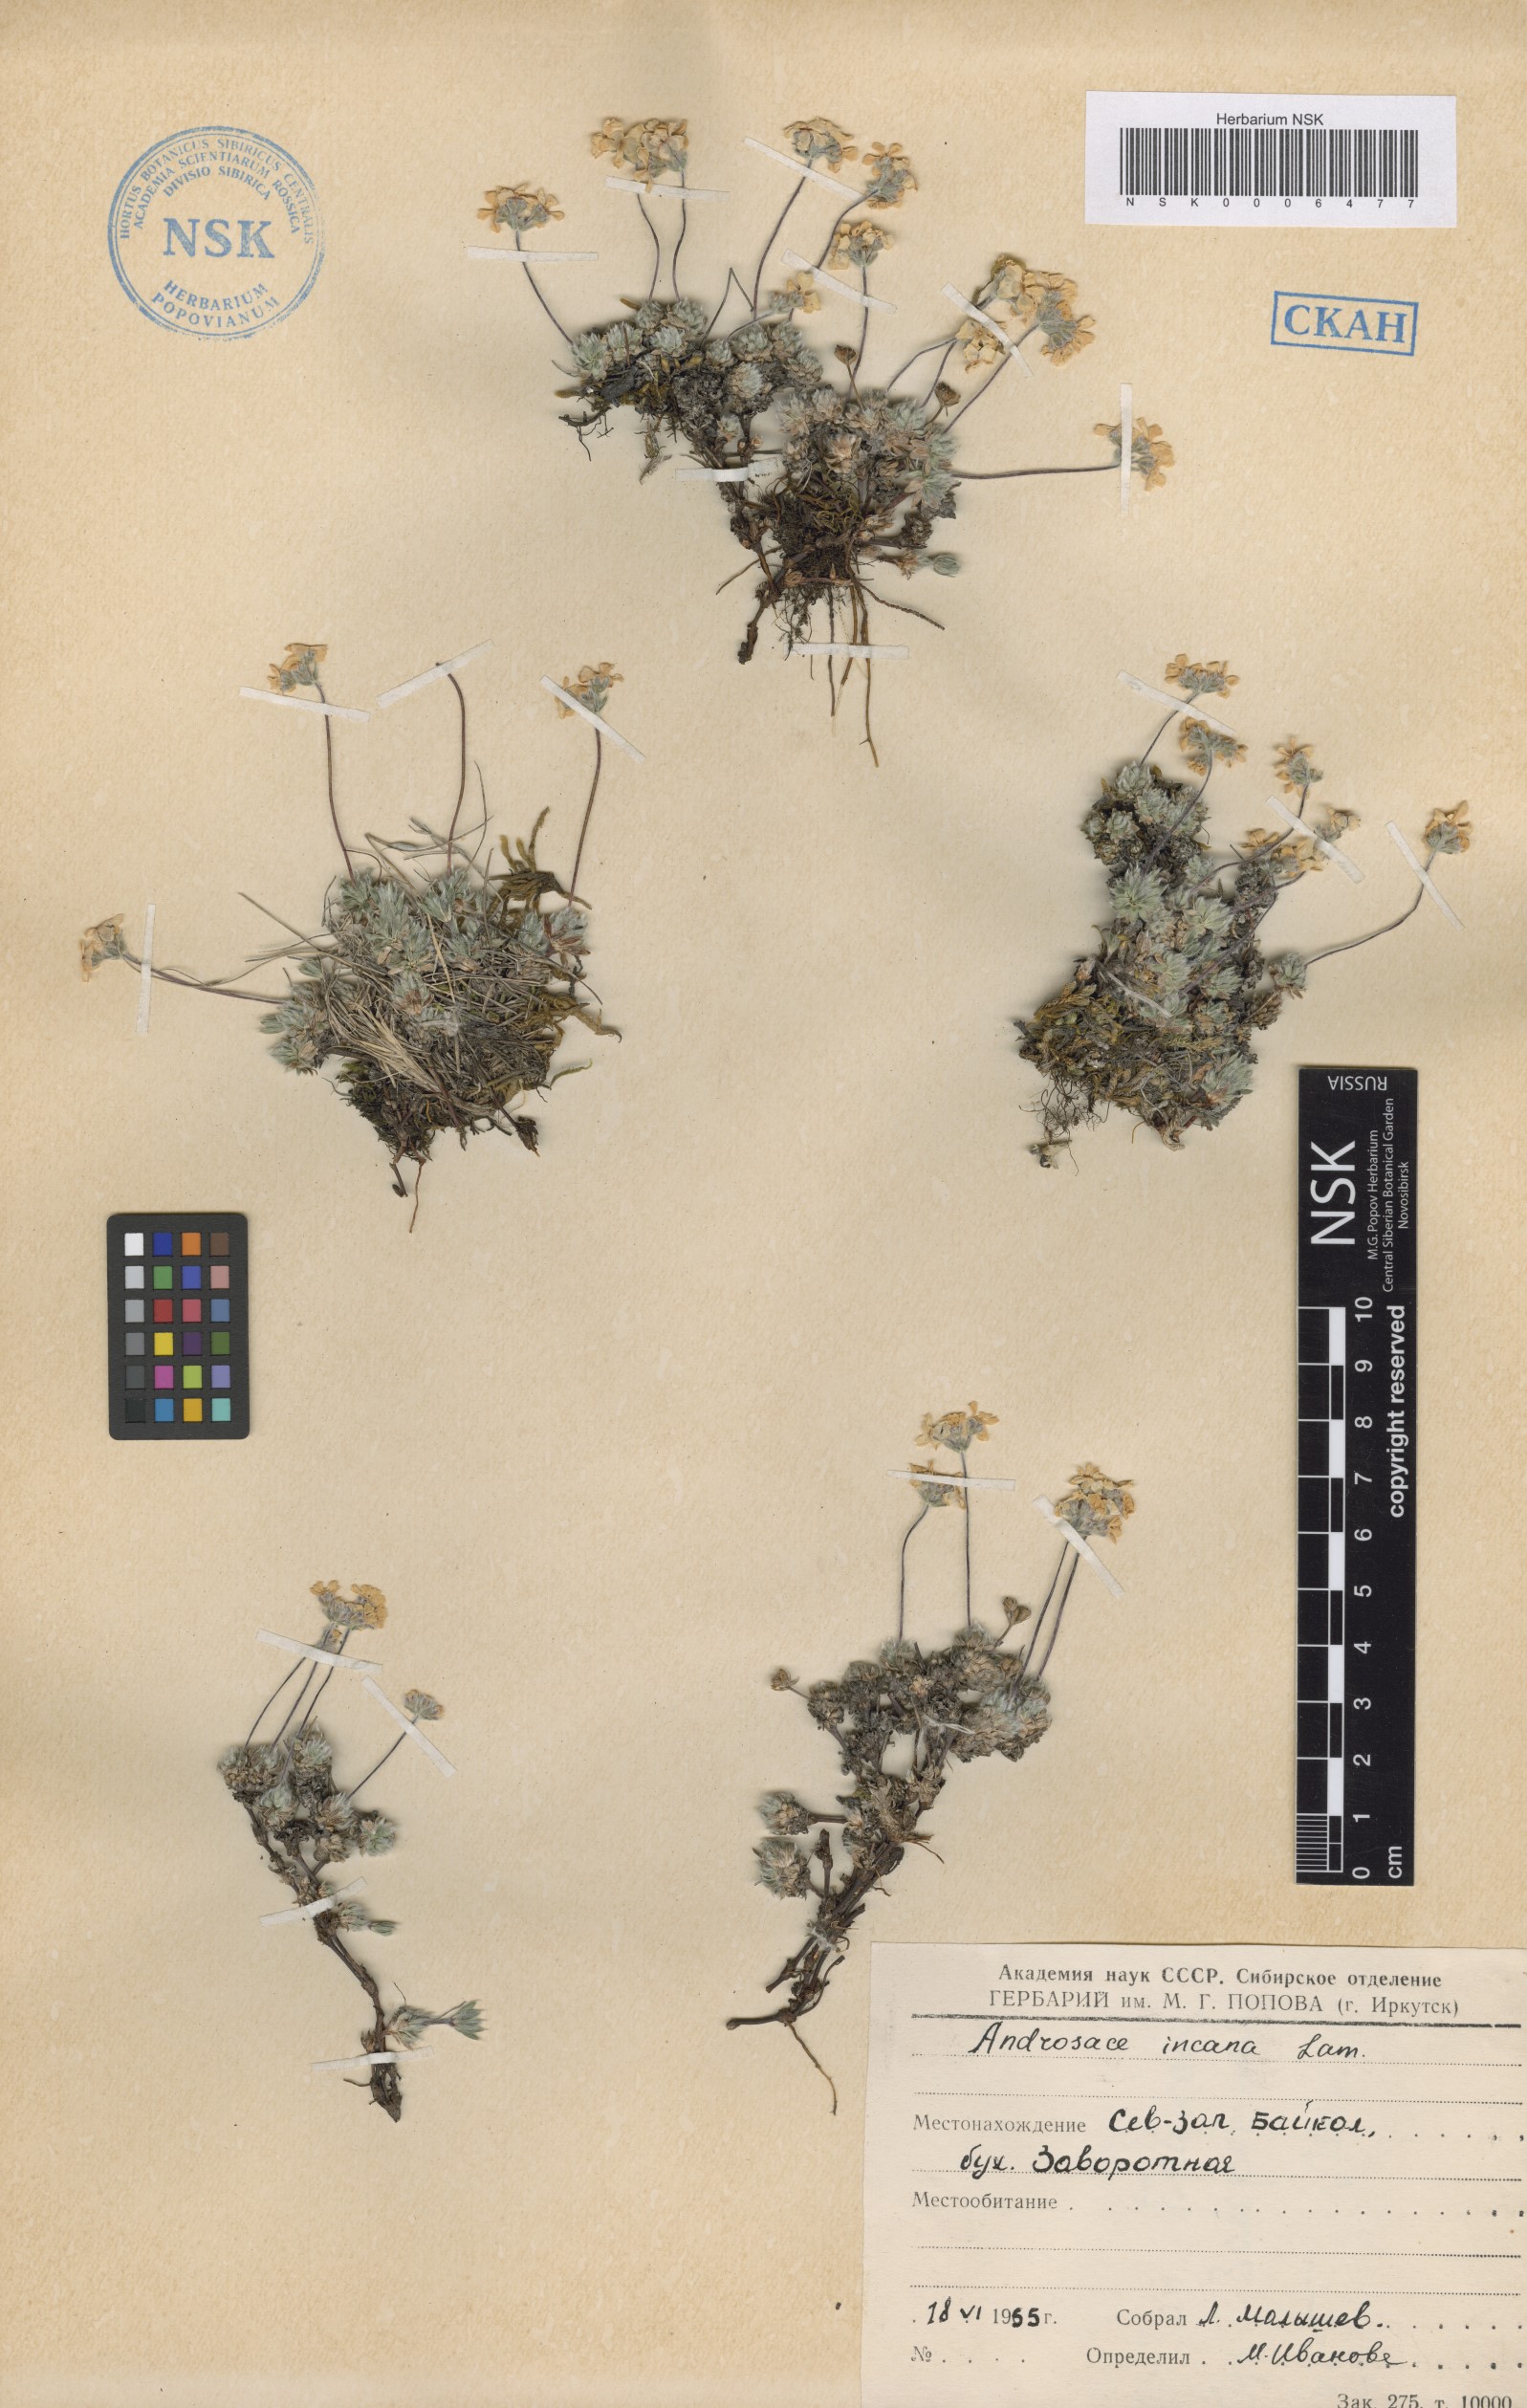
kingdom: Plantae
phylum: Tracheophyta
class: Magnoliopsida
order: Ericales
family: Primulaceae
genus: Androsace
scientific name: Androsace incana
